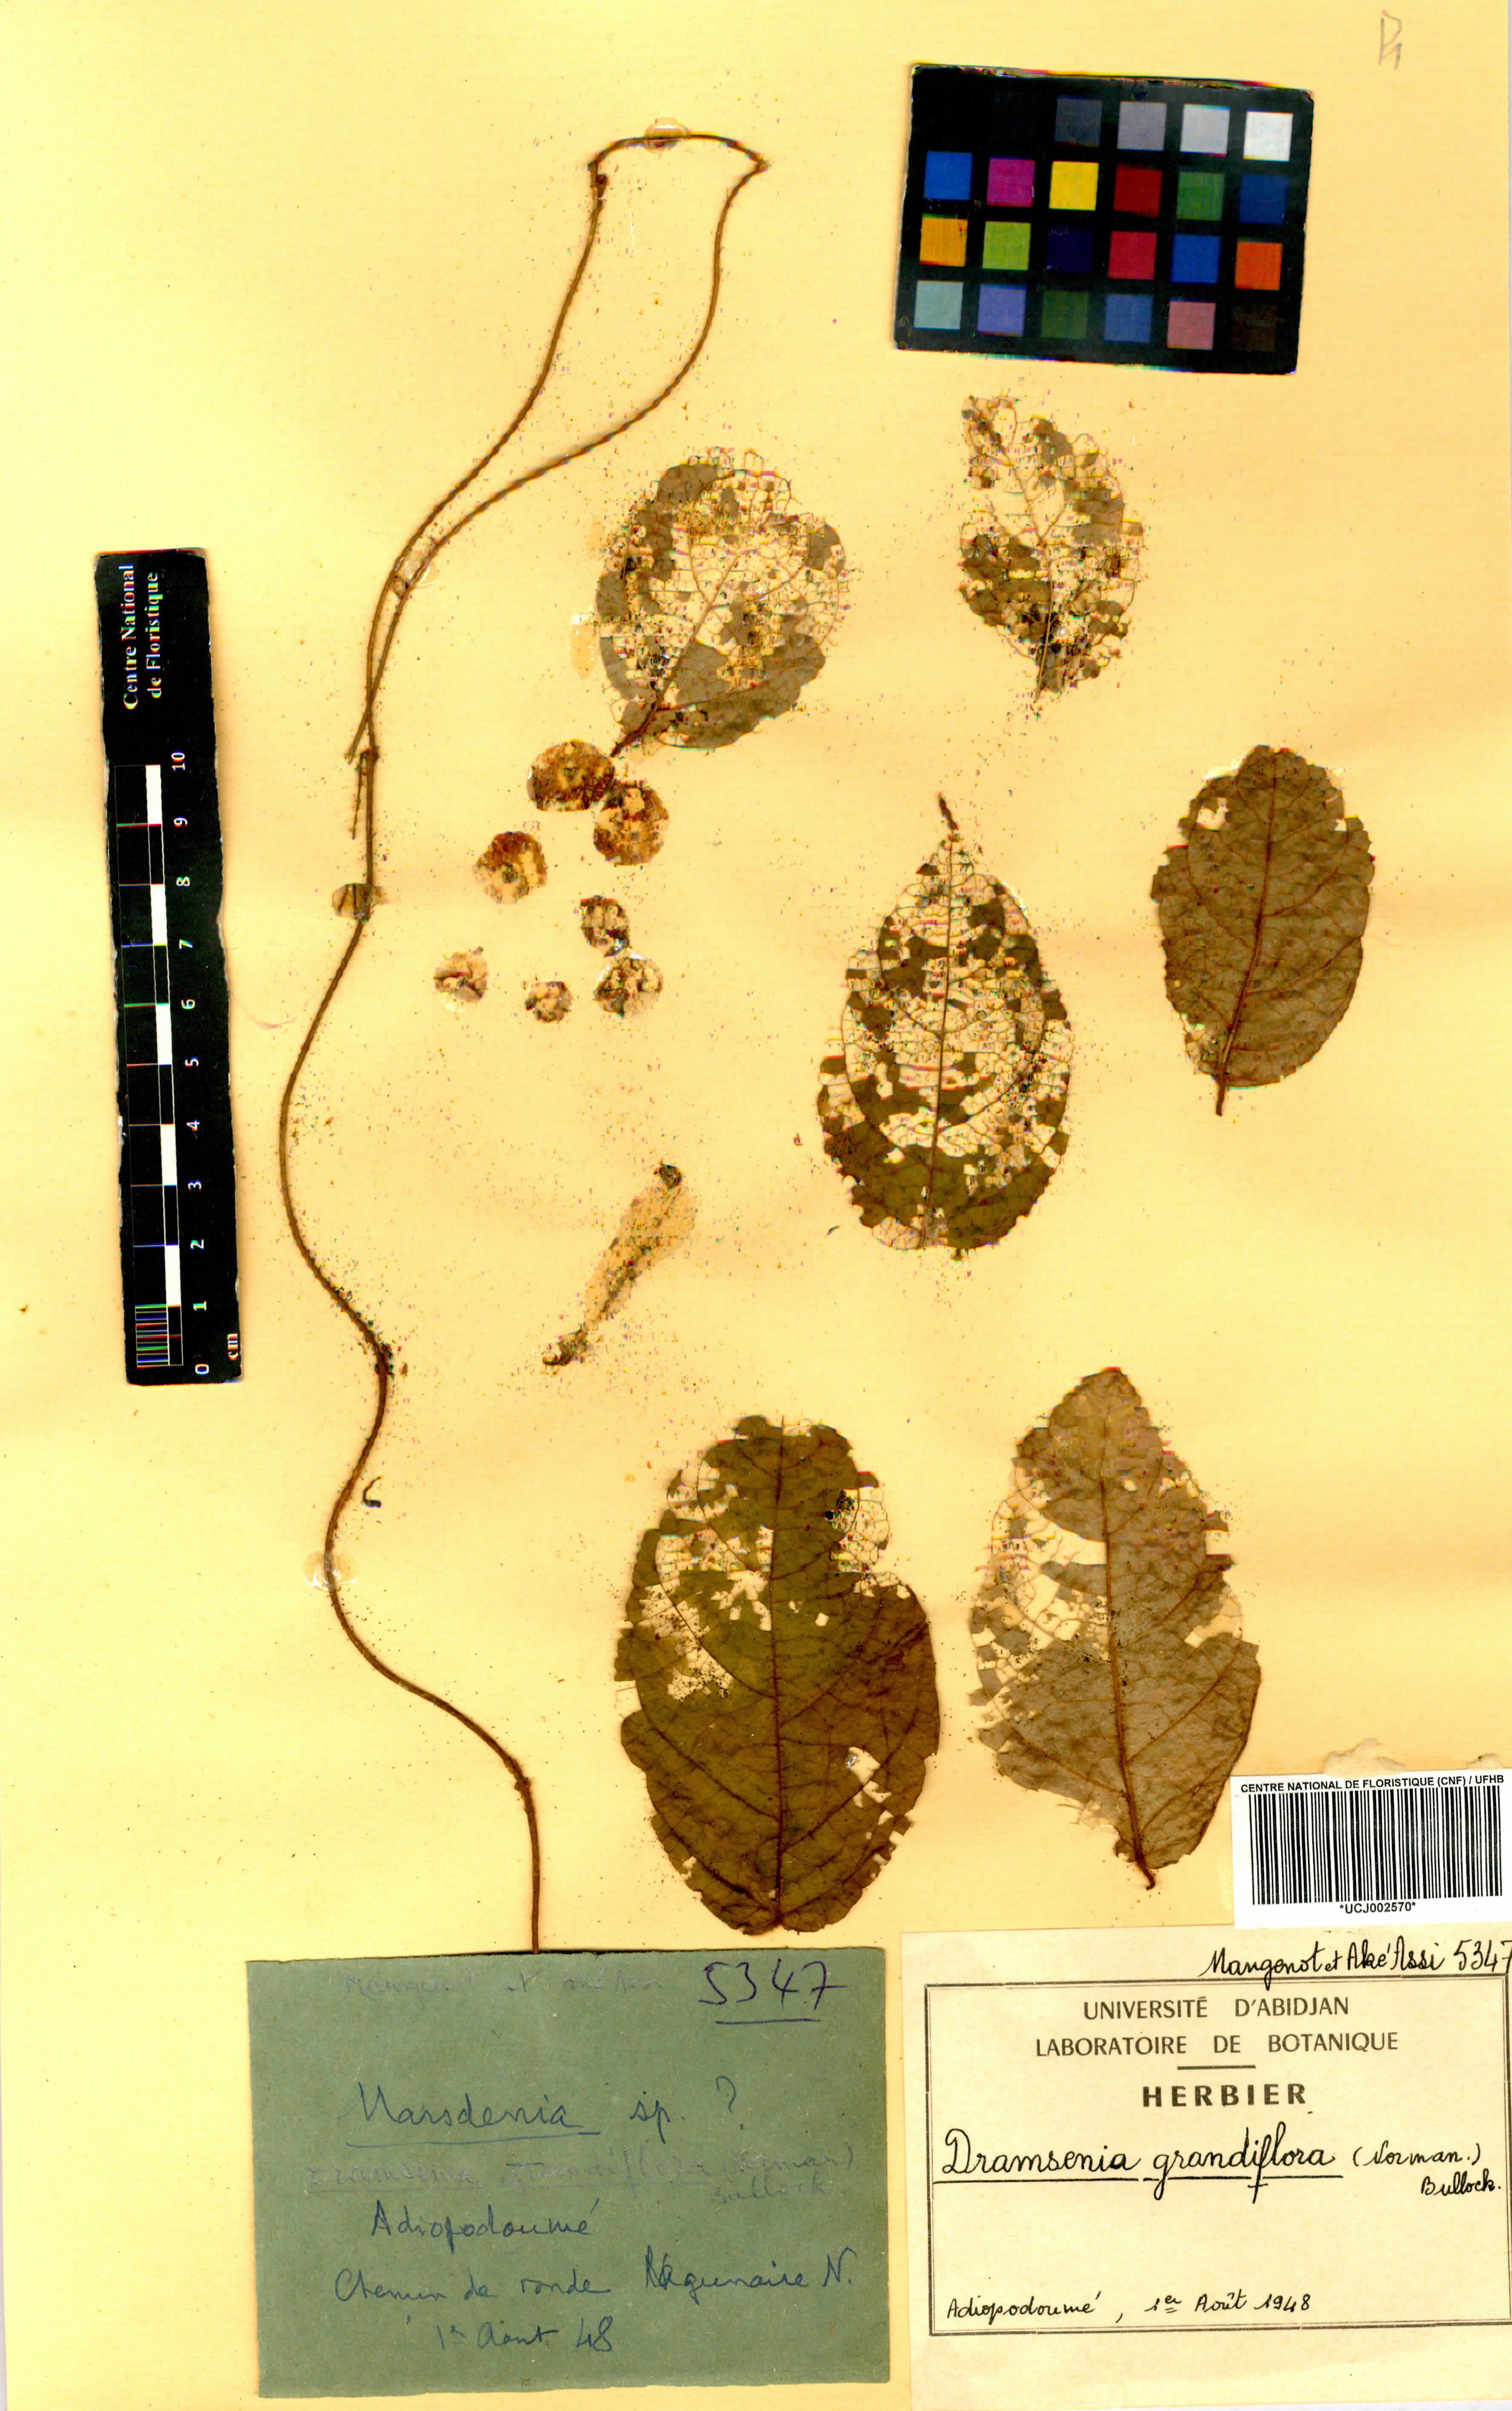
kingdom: Plantae
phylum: Tracheophyta
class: Magnoliopsida
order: Gentianales
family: Apocynaceae
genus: Stephanotis
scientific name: Stephanotis grandiflora
